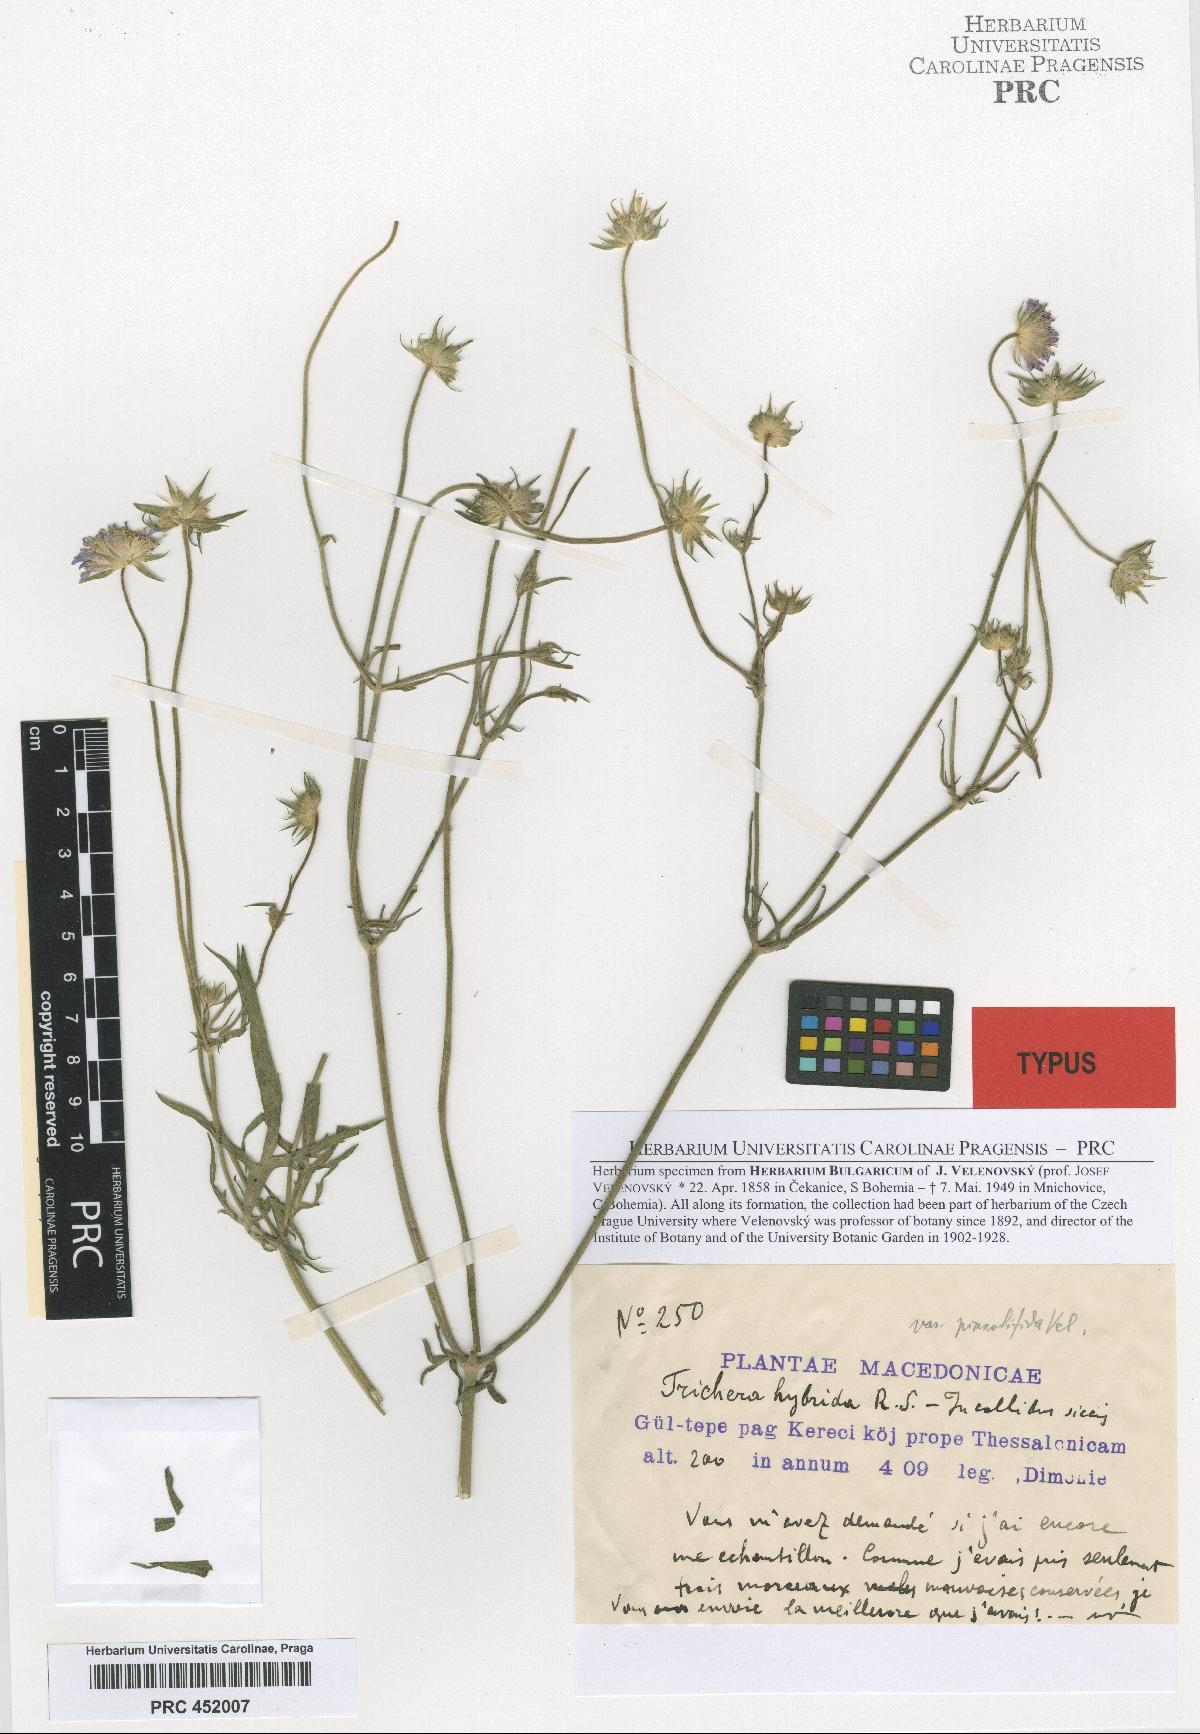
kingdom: Plantae
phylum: Tracheophyta
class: Magnoliopsida
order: Dipsacales
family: Caprifoliaceae
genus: Knautia
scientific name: Knautia integrifolia
